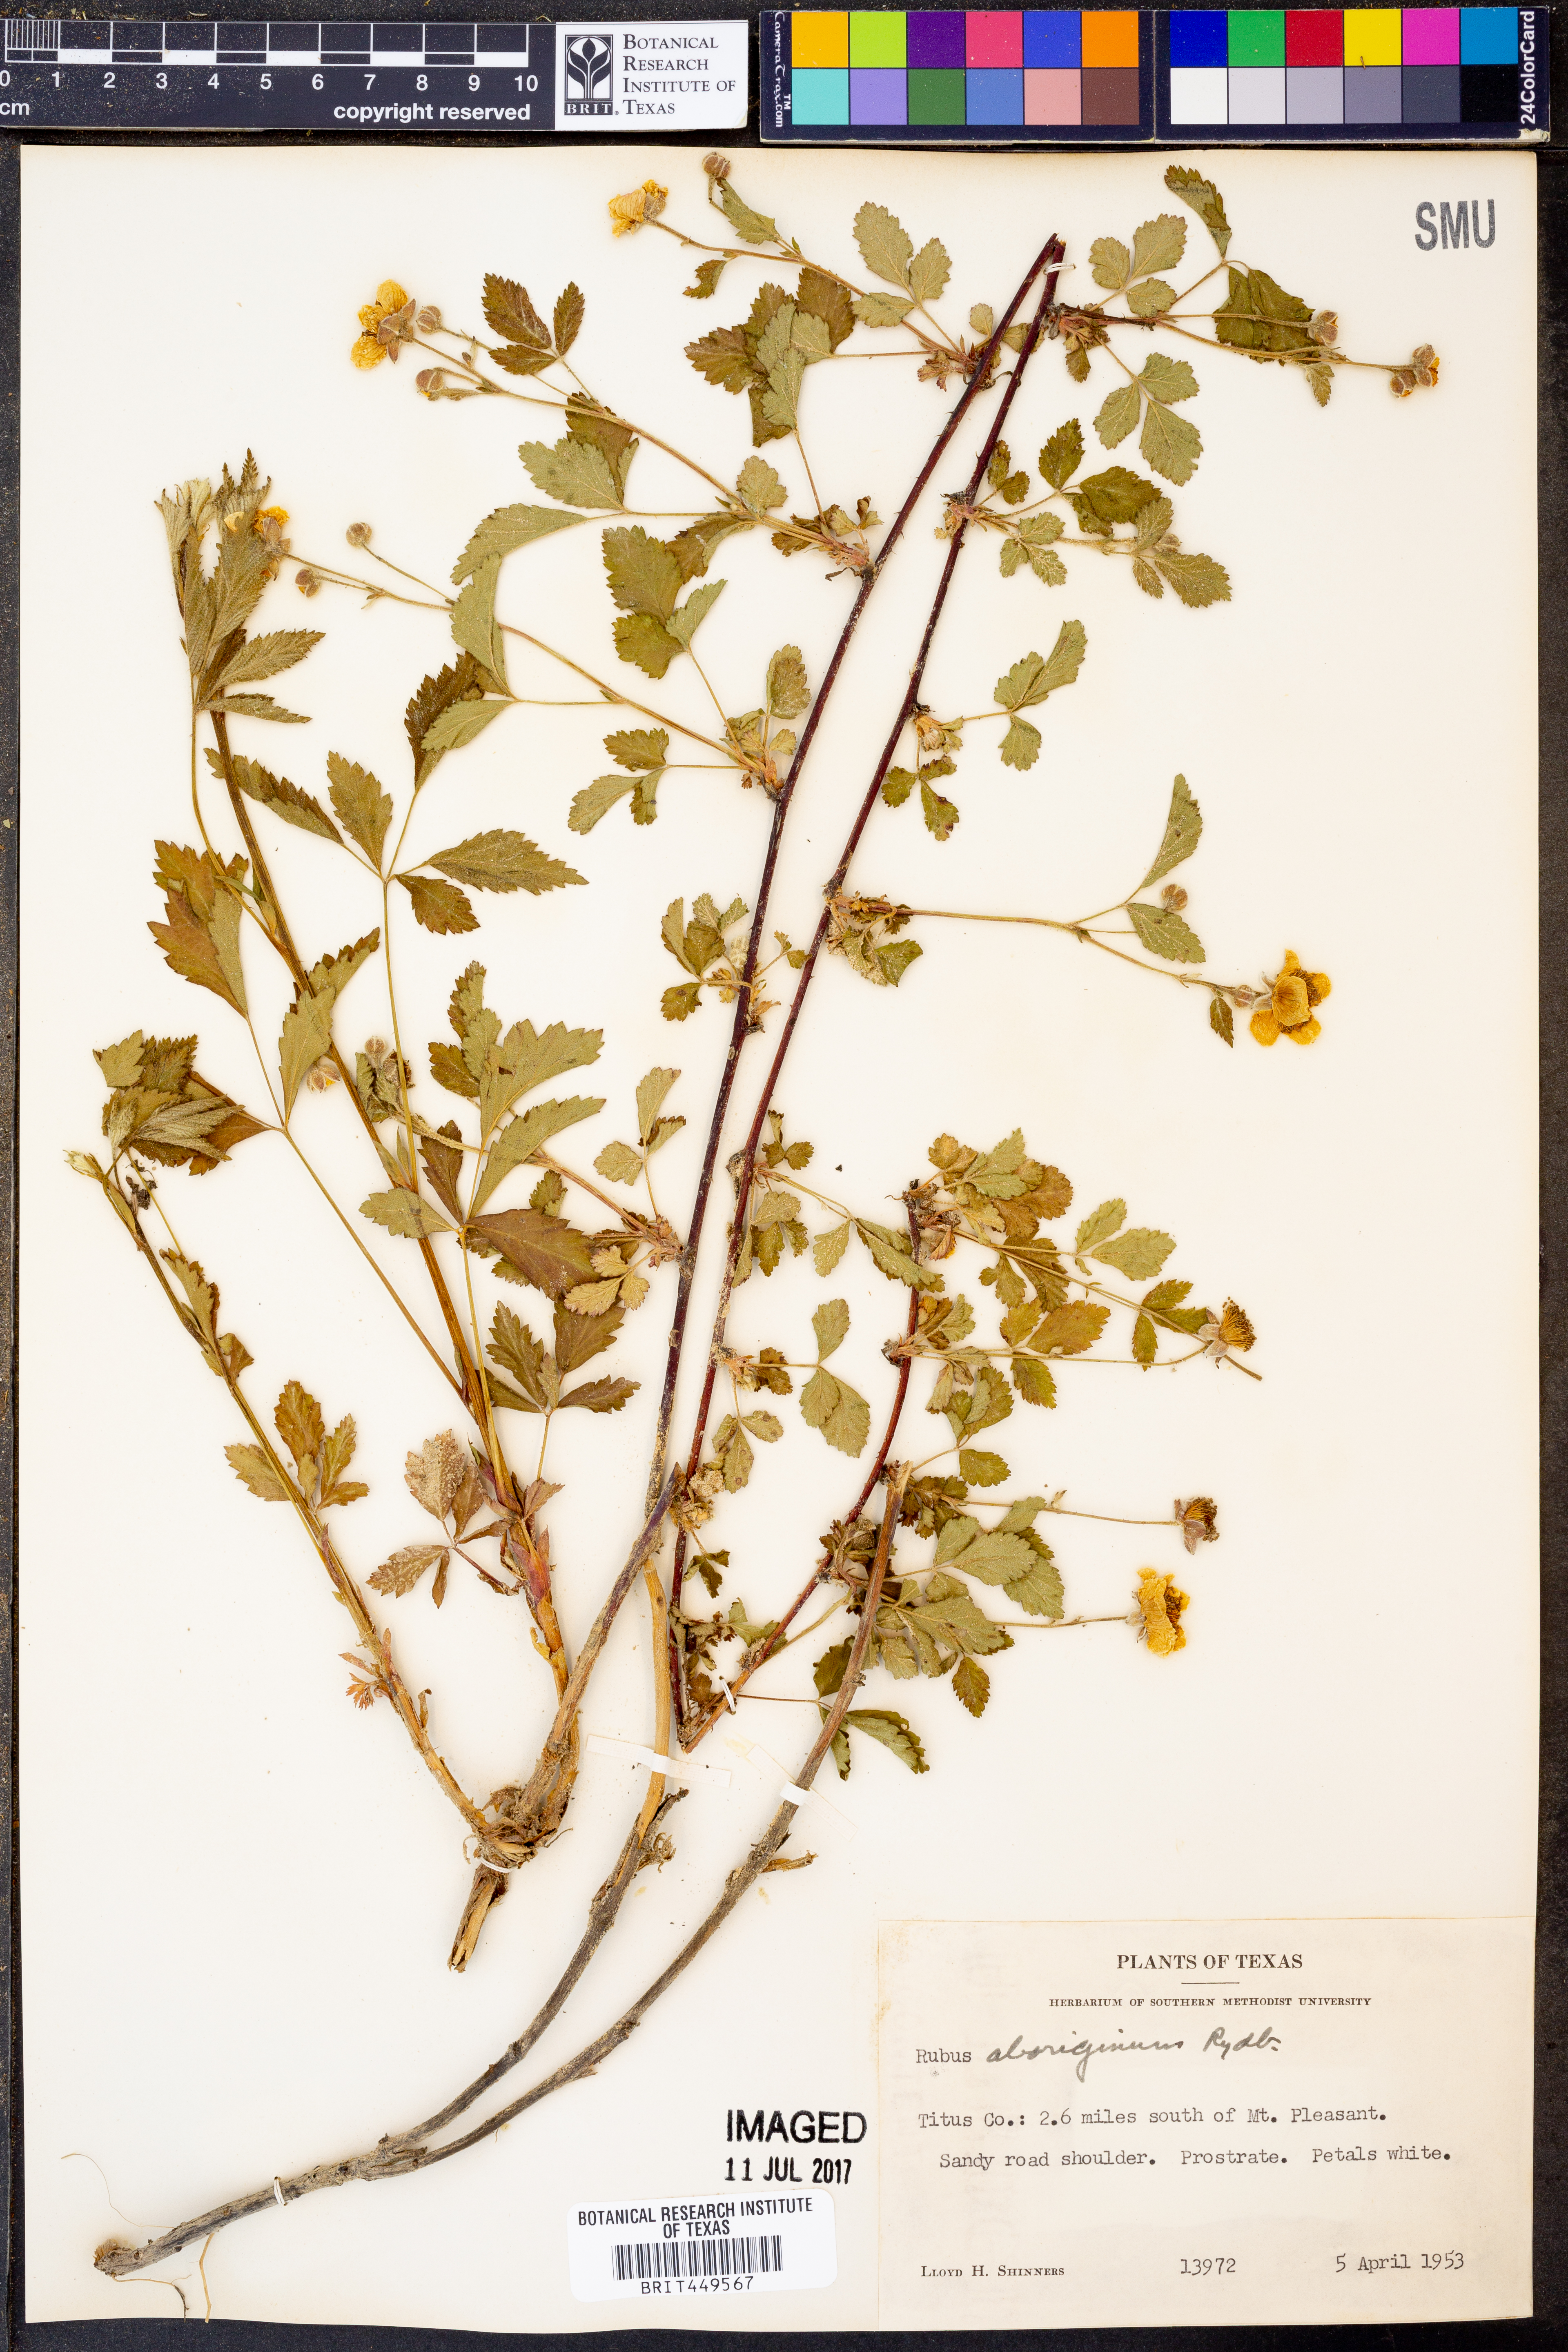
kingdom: Plantae
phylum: Tracheophyta
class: Magnoliopsida
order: Rosales
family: Rosaceae
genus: Rubus
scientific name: Rubus aboriginum
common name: Mayes dewberry
